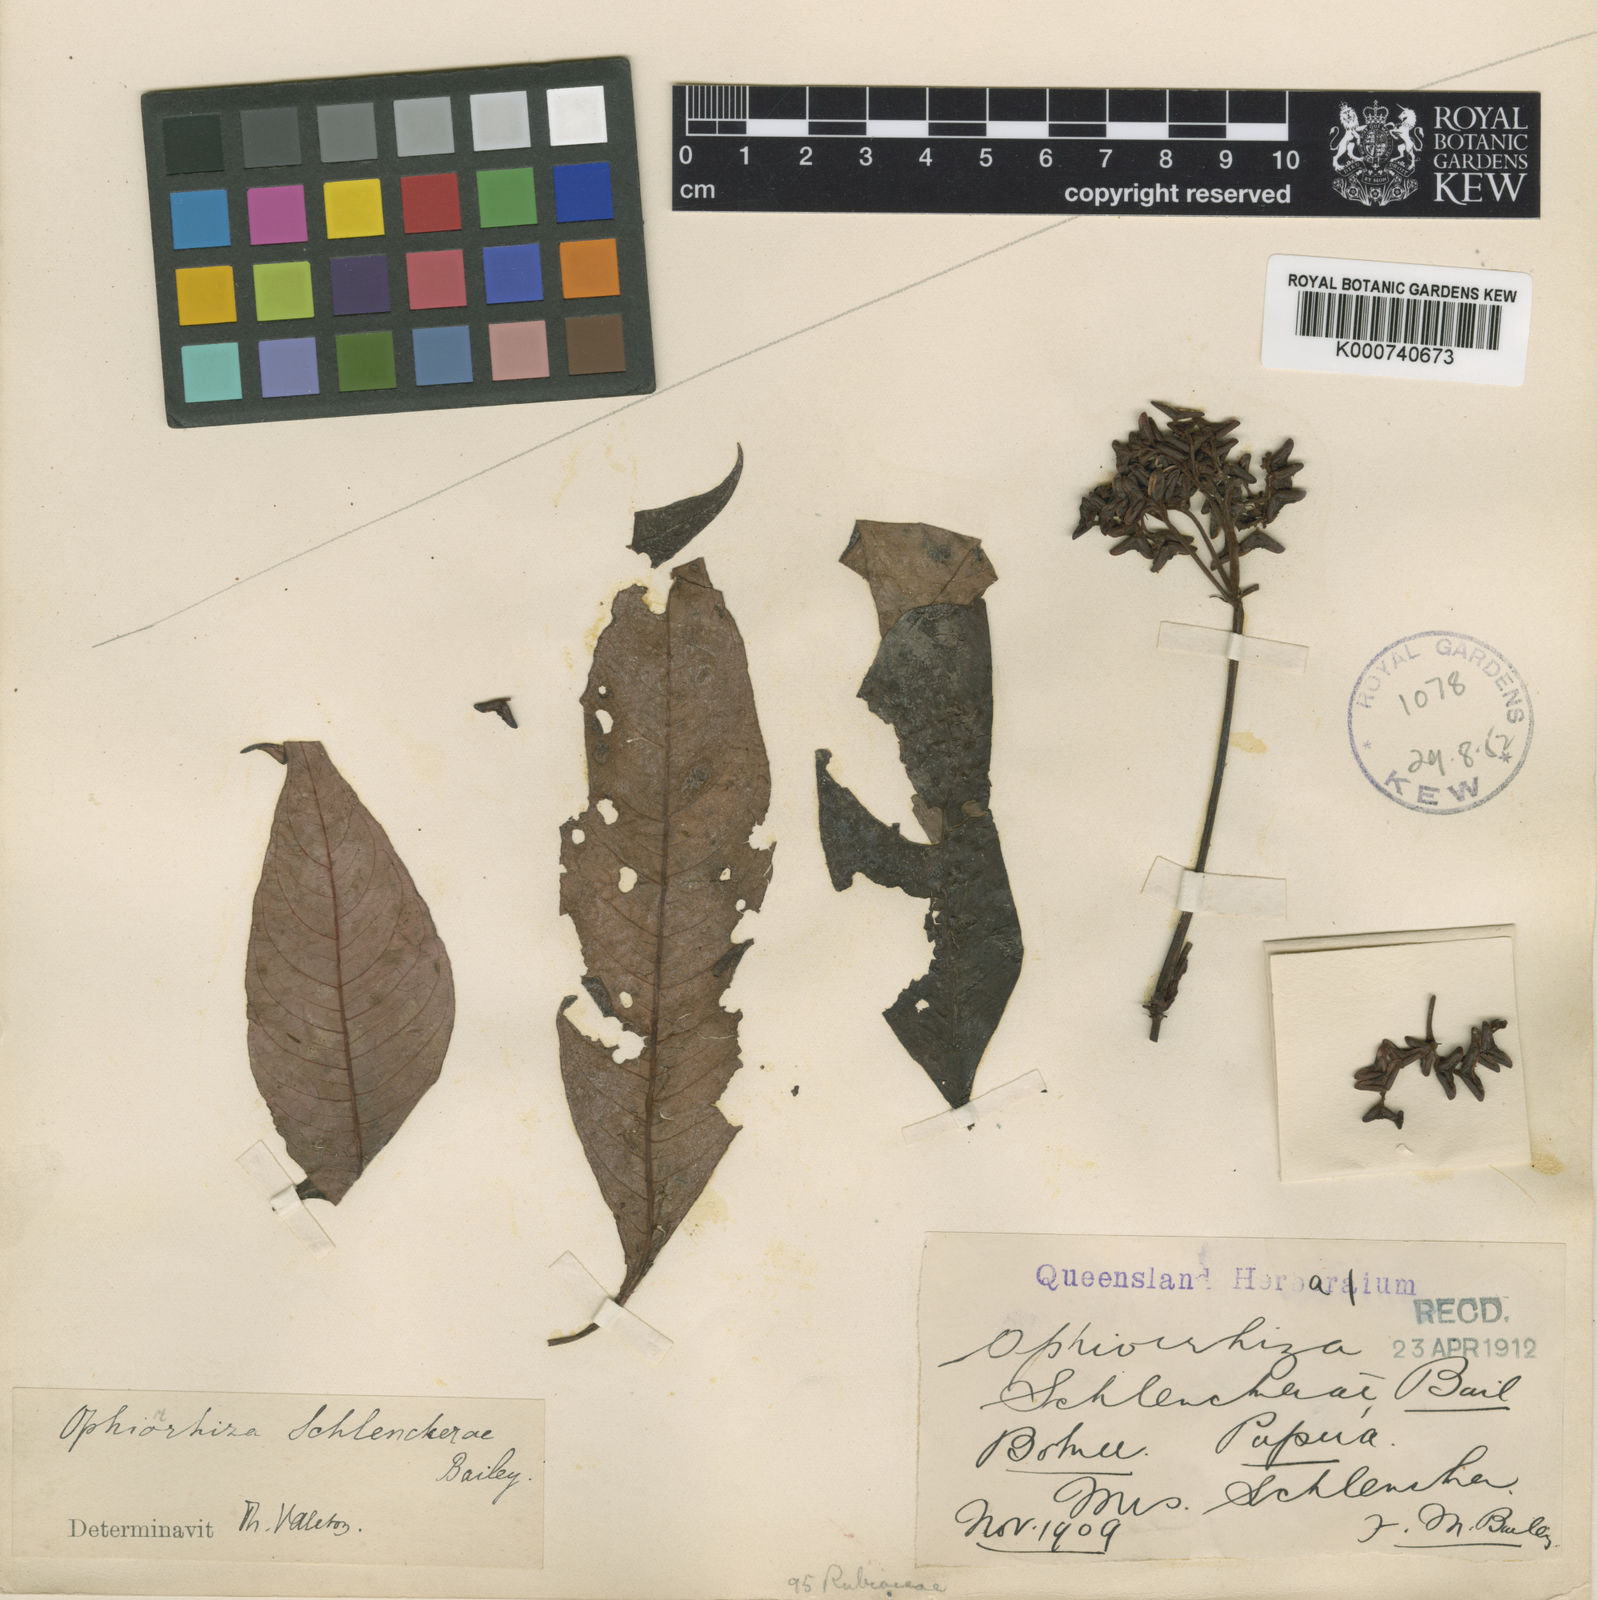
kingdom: Plantae
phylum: Tracheophyta
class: Magnoliopsida
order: Gentianales
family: Rubiaceae
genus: Ophiorrhiza
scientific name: Ophiorrhiza schlenckerae
